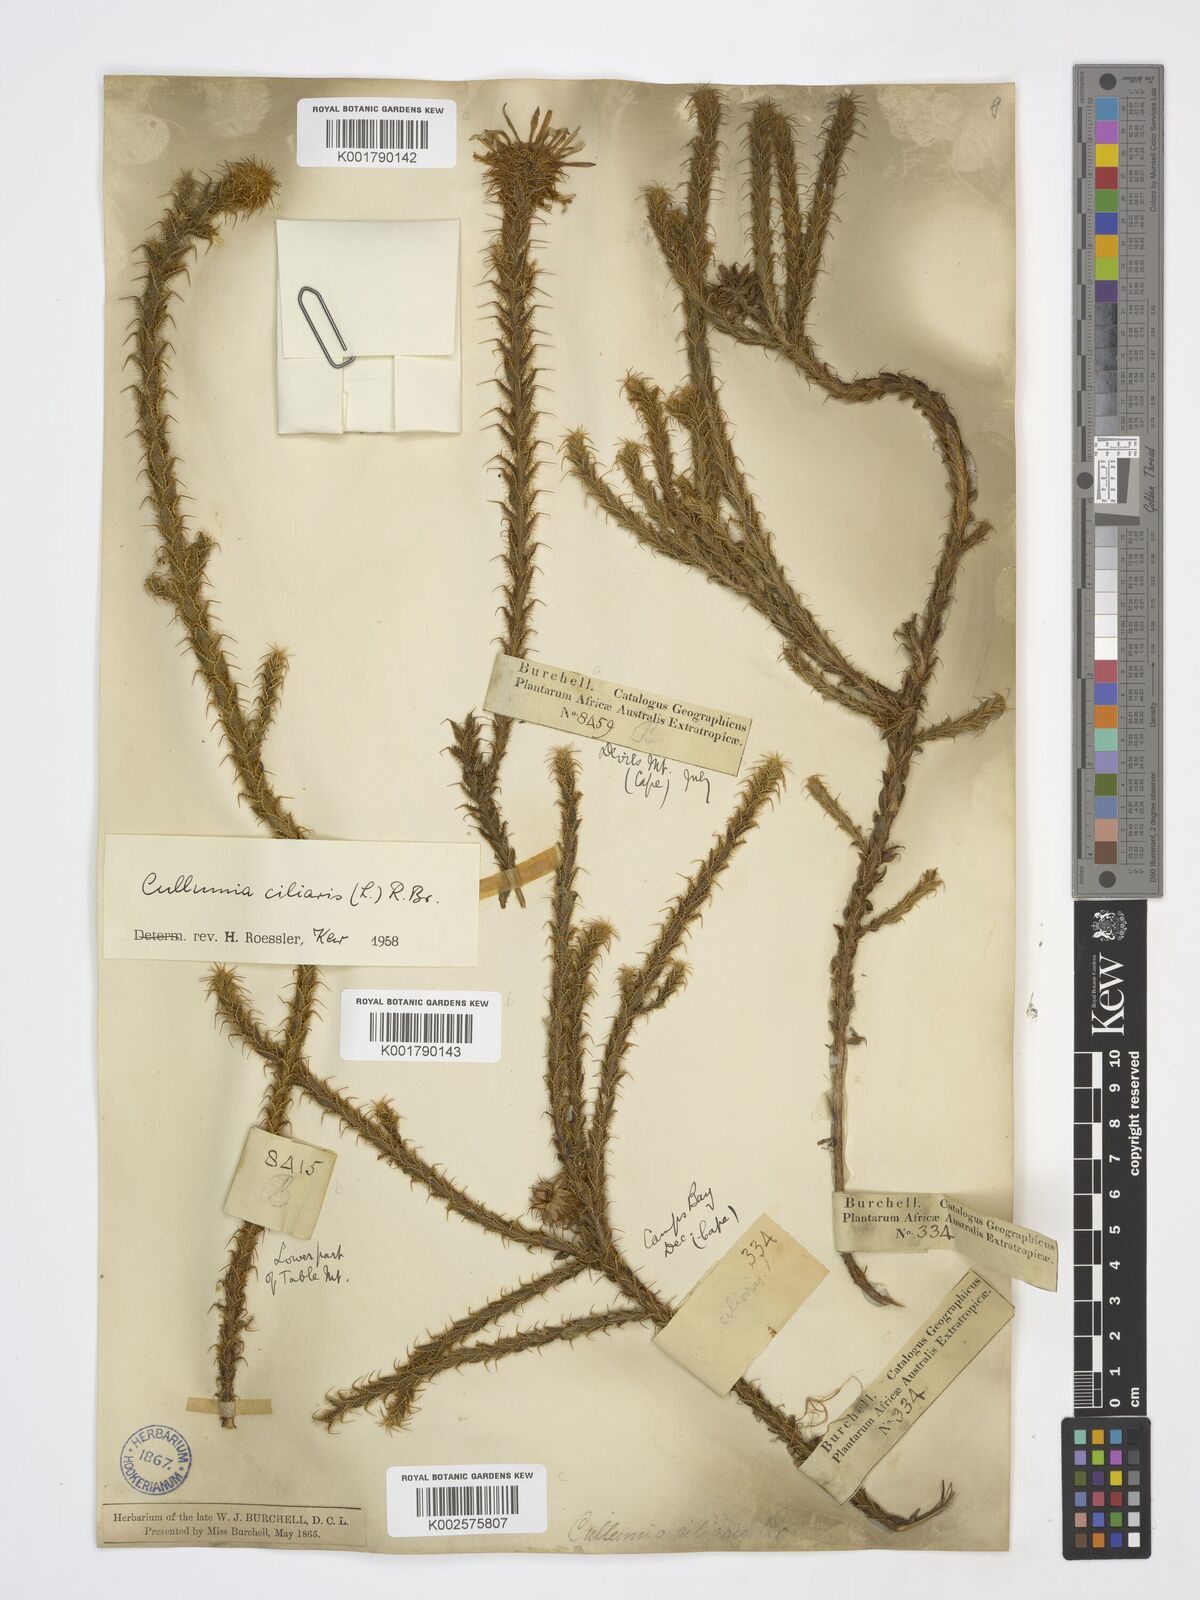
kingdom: Plantae
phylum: Tracheophyta
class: Magnoliopsida
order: Asterales
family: Asteraceae
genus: Cullumia
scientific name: Cullumia ciliaris
